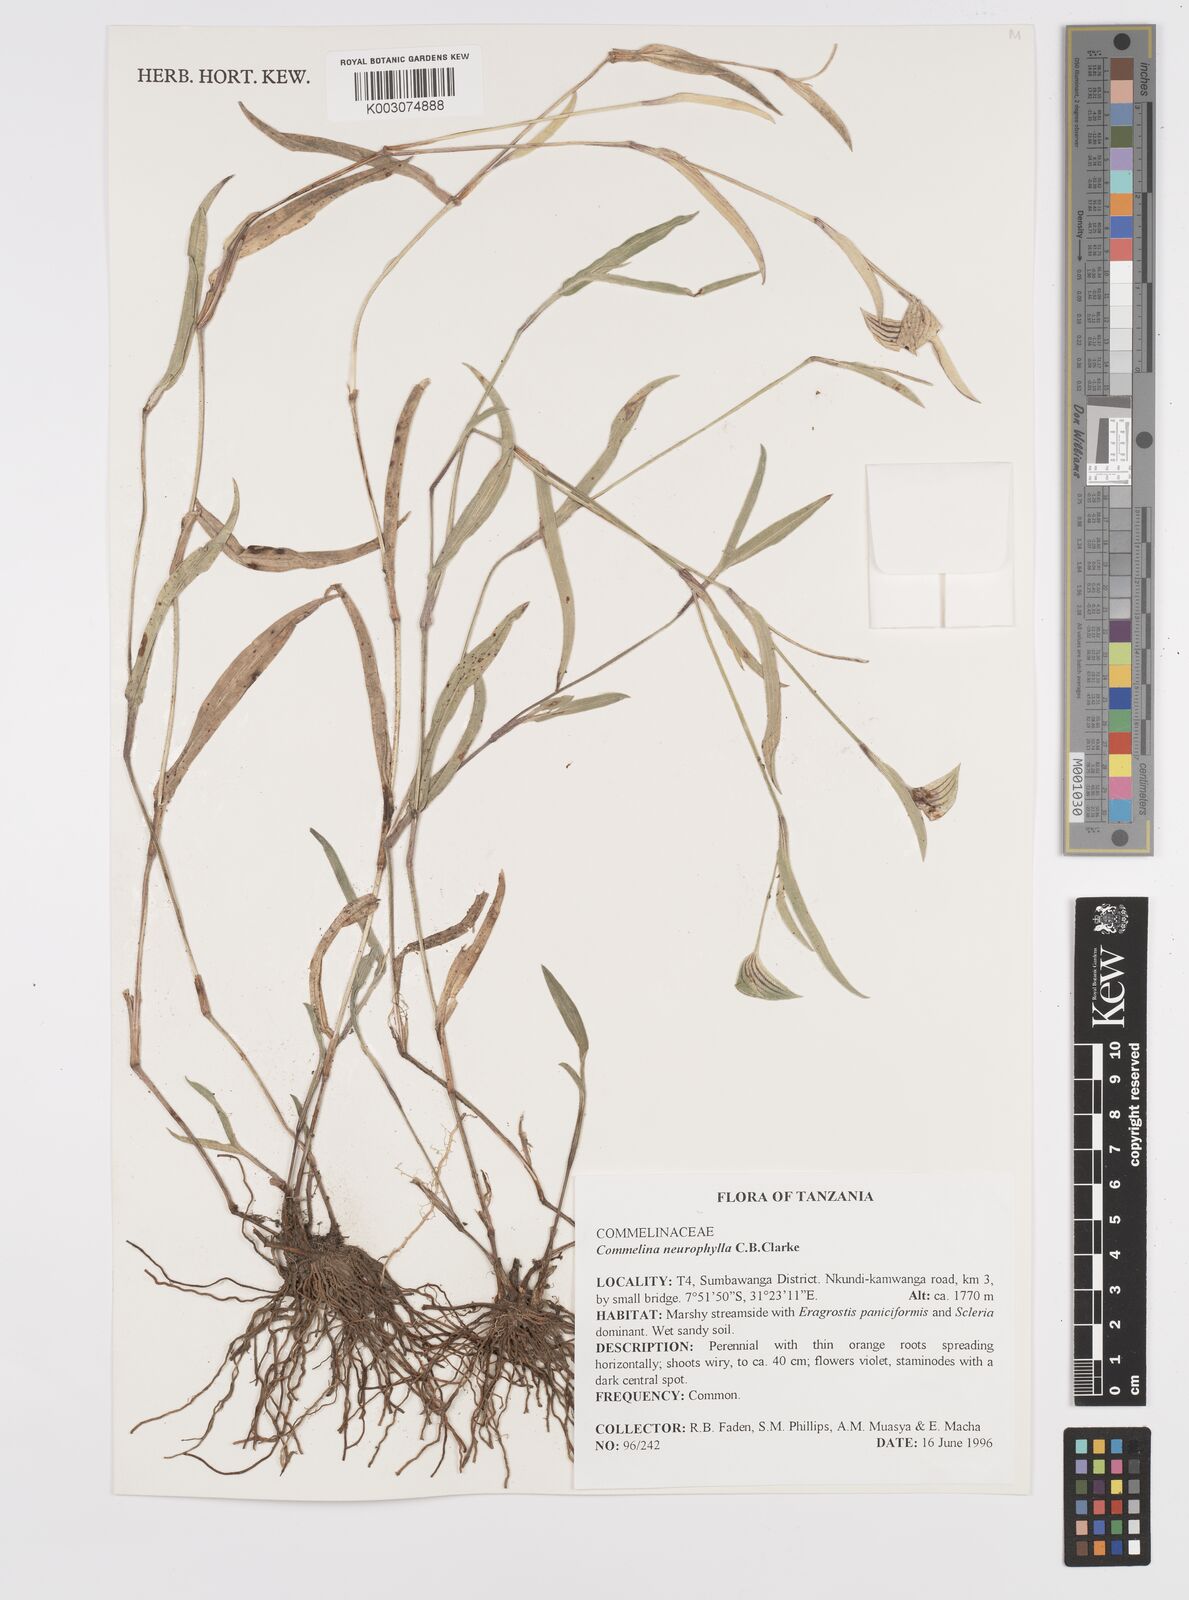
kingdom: Plantae
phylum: Tracheophyta
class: Liliopsida
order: Commelinales
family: Commelinaceae
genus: Commelina
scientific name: Commelina neurophylla
